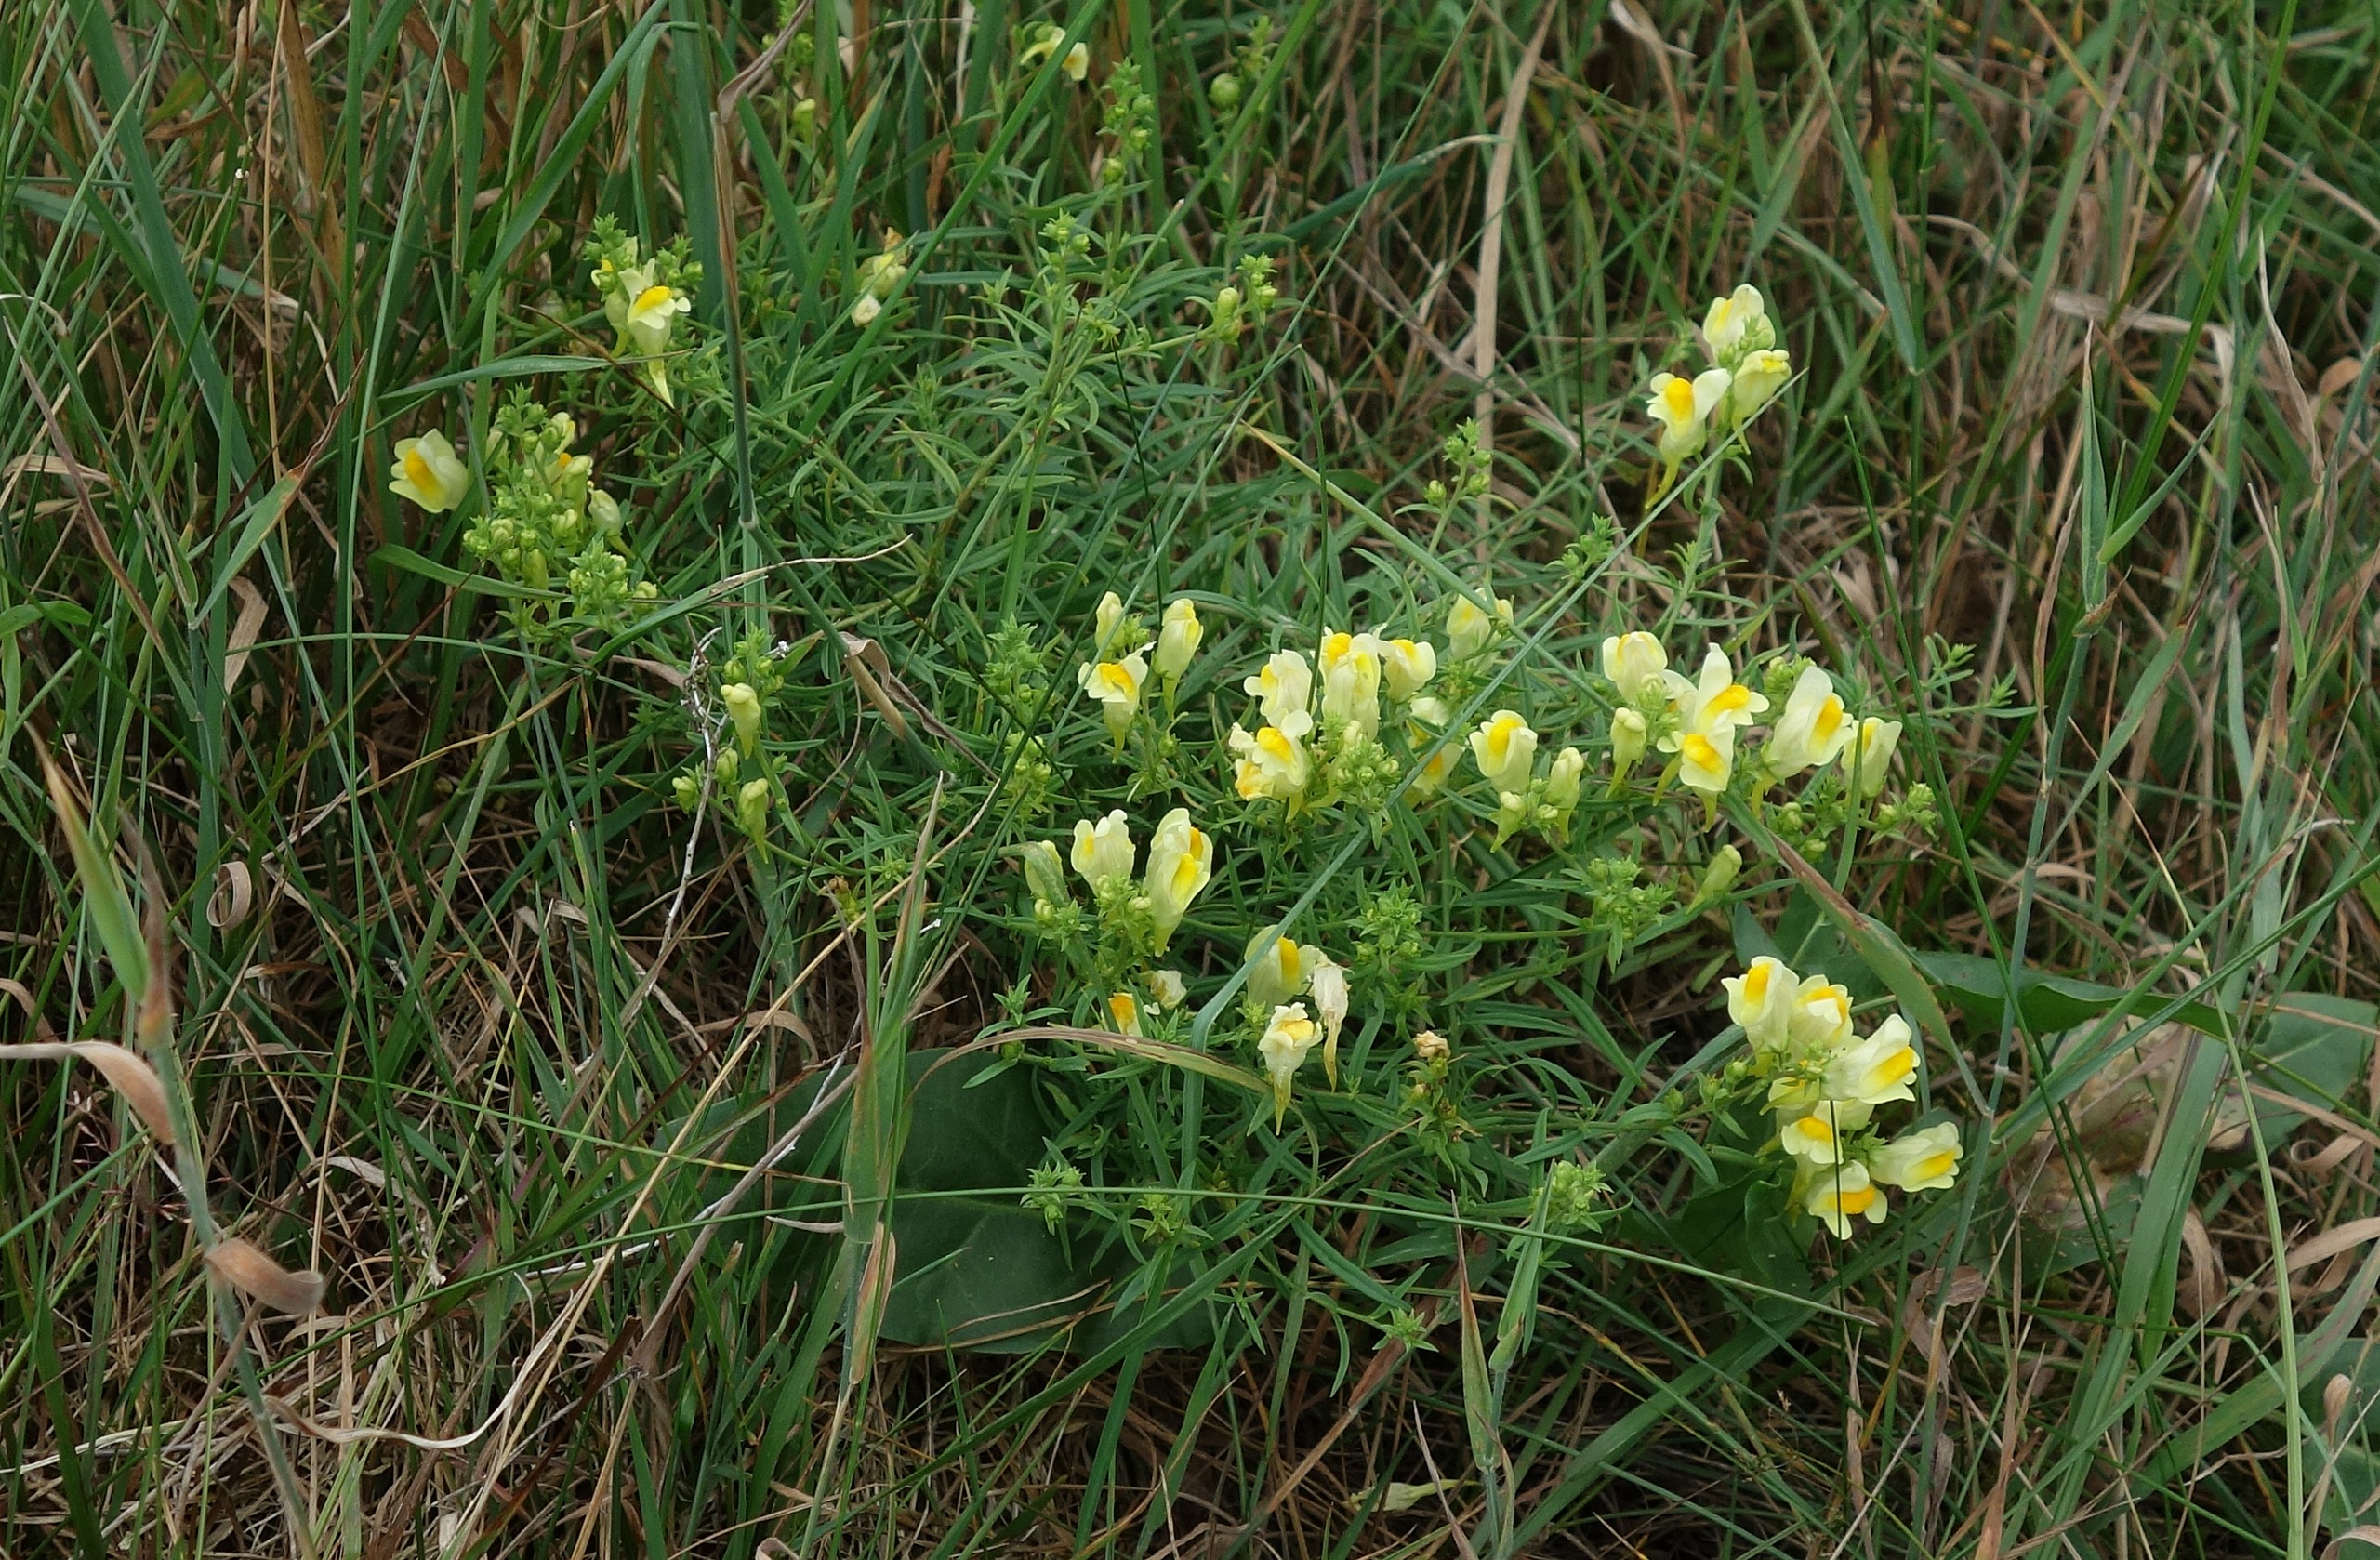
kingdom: Plantae
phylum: Tracheophyta
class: Magnoliopsida
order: Lamiales
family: Plantaginaceae
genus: Linaria
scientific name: Linaria vulgaris
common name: Almindelig torskemund
